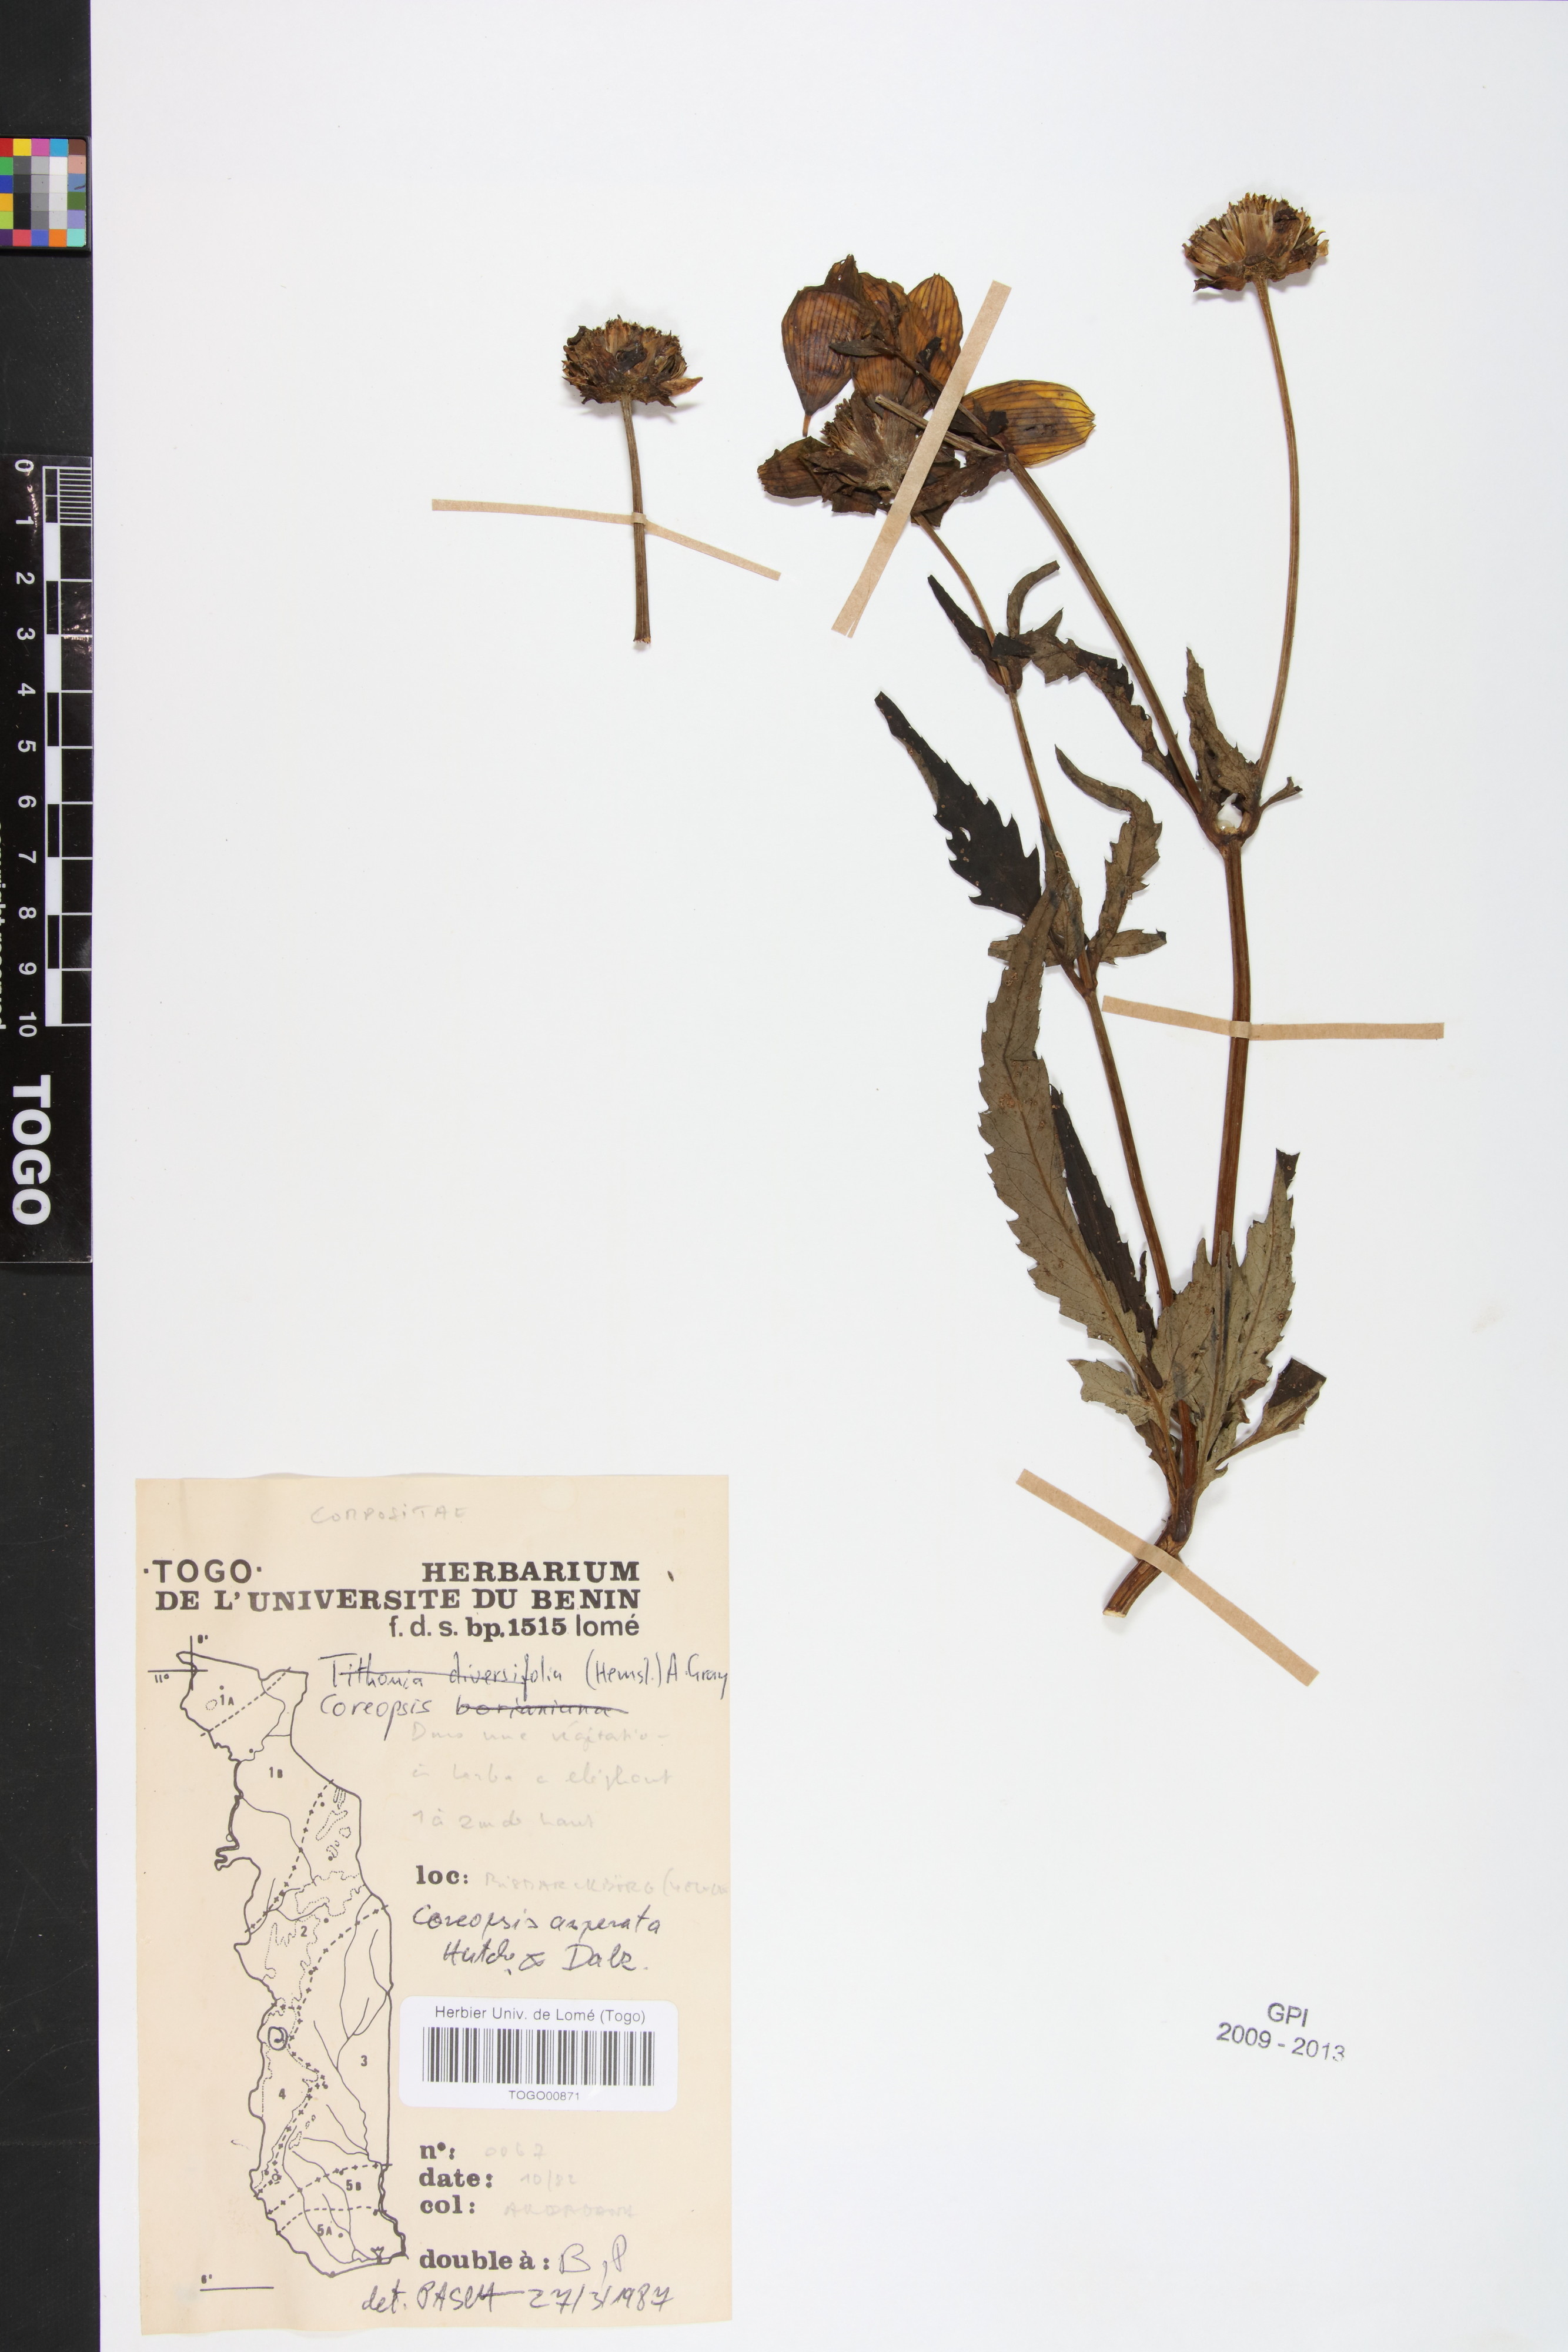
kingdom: Plantae
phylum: Tracheophyta
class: Magnoliopsida
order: Asterales
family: Asteraceae
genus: Bidens
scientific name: Bidens asperata
